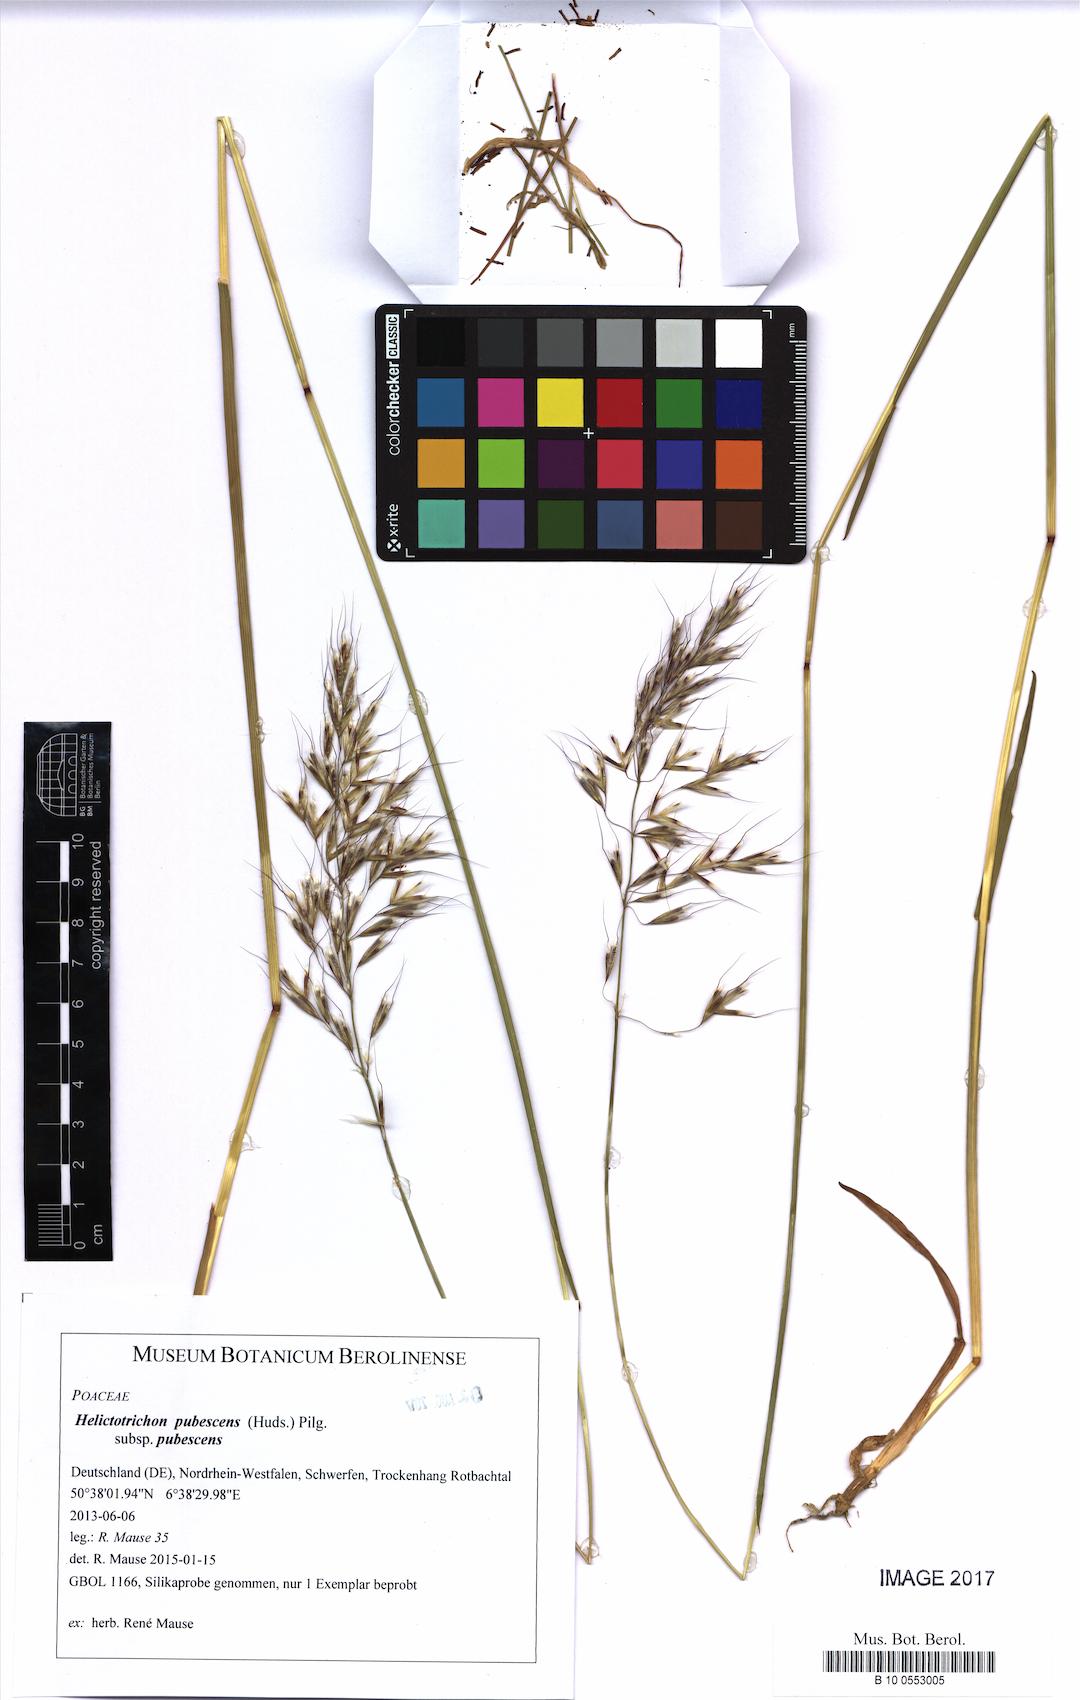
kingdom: Plantae
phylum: Tracheophyta
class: Liliopsida
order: Poales
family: Poaceae
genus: Avenula
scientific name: Avenula pubescens
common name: Downy alpine oatgrass
